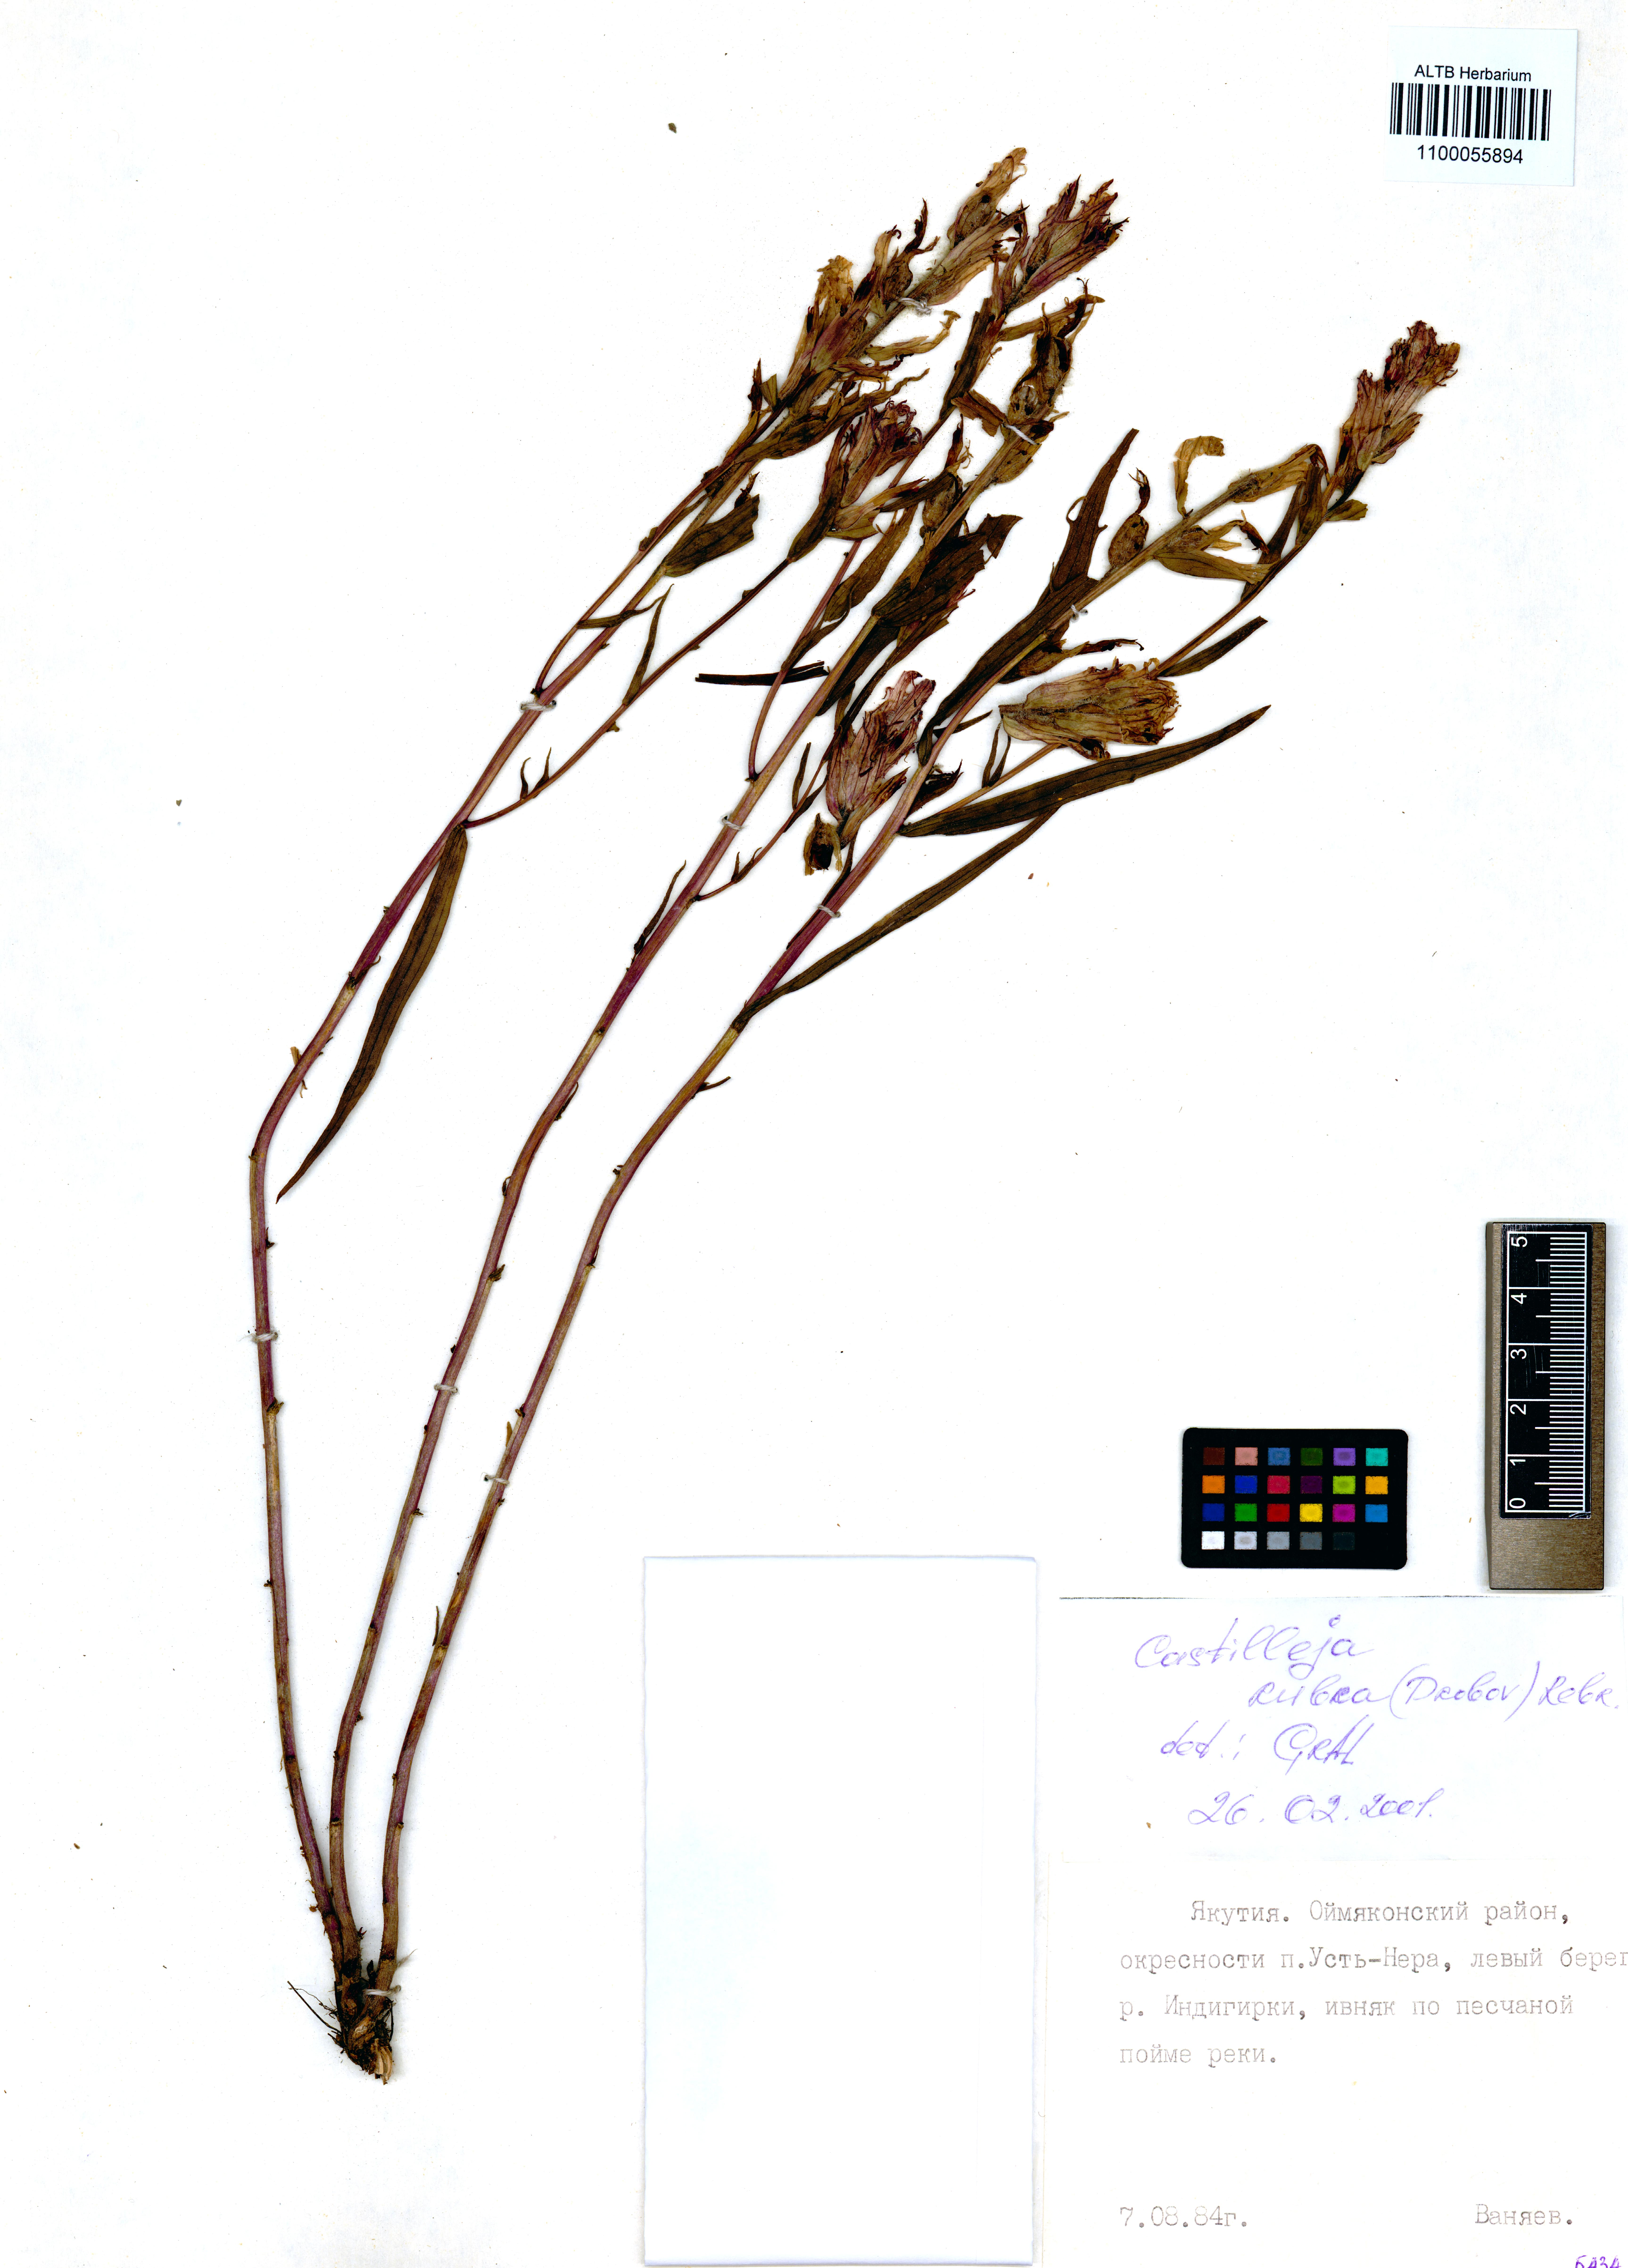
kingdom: Plantae
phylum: Tracheophyta
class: Magnoliopsida
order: Lamiales
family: Orobanchaceae
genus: Castilleja
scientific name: Castilleja rubra
